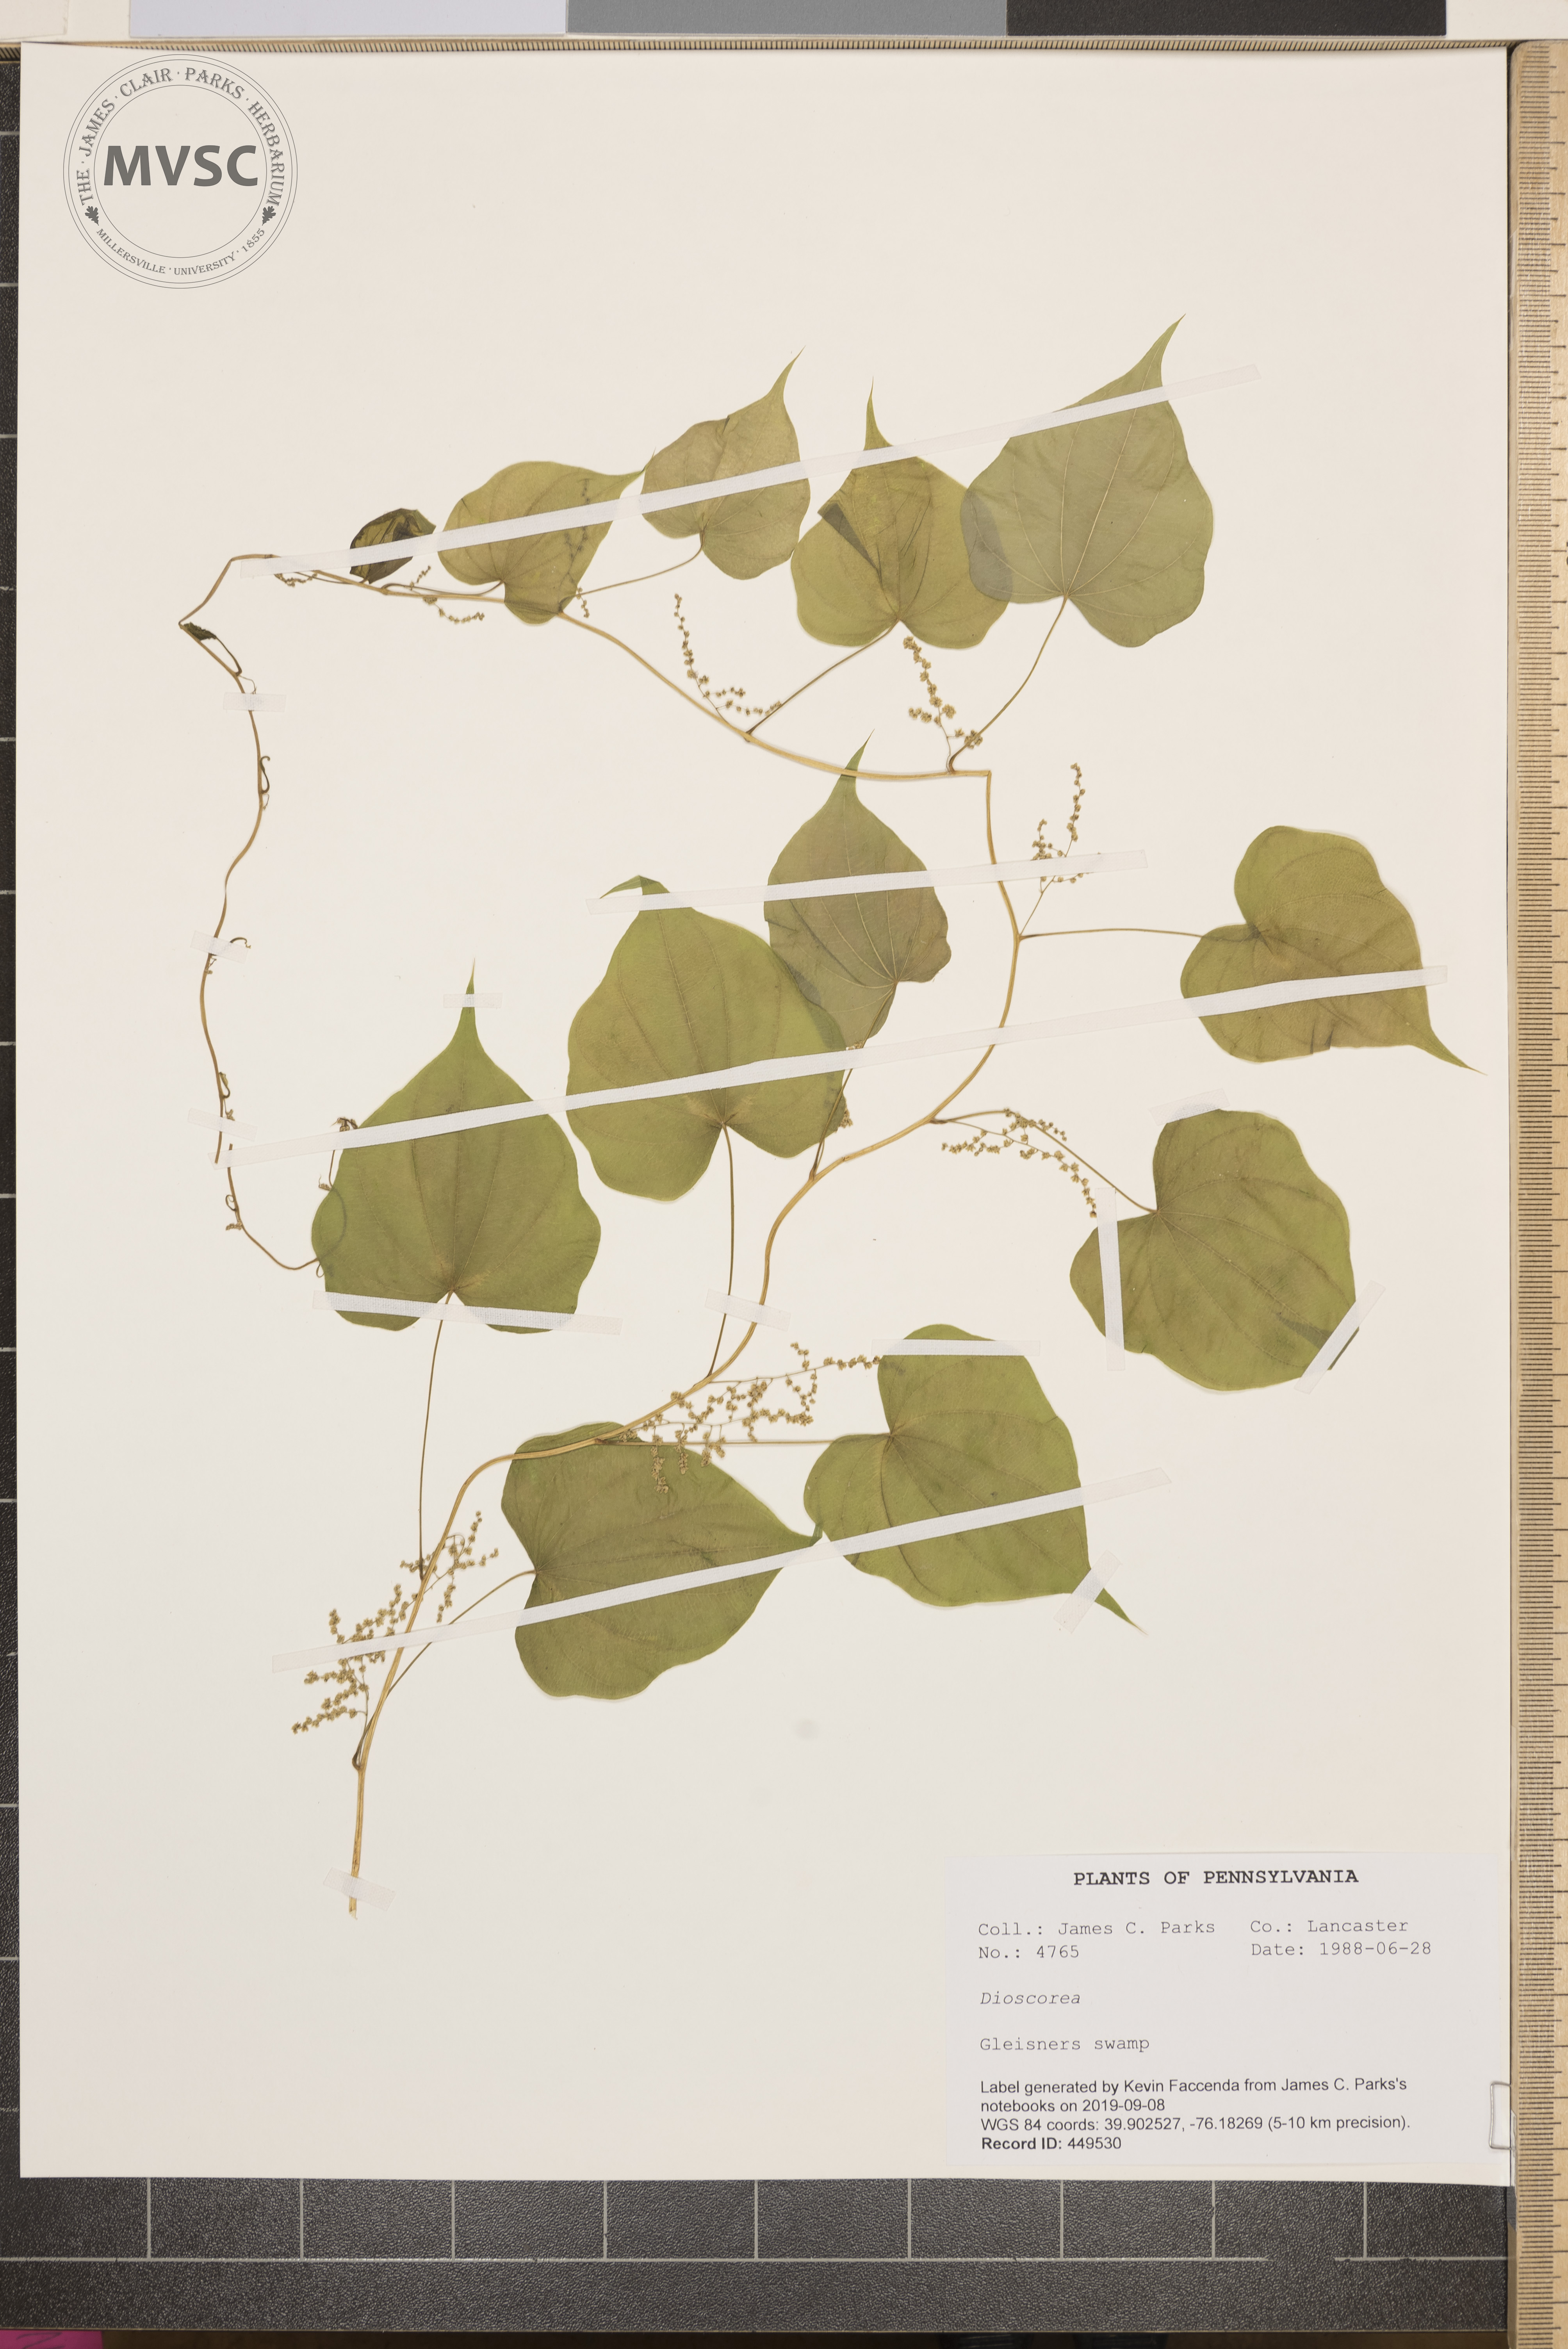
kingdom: Plantae
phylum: Tracheophyta
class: Liliopsida
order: Dioscoreales
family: Dioscoreaceae
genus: Dioscorea
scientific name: Dioscorea villosa
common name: Wild yam
